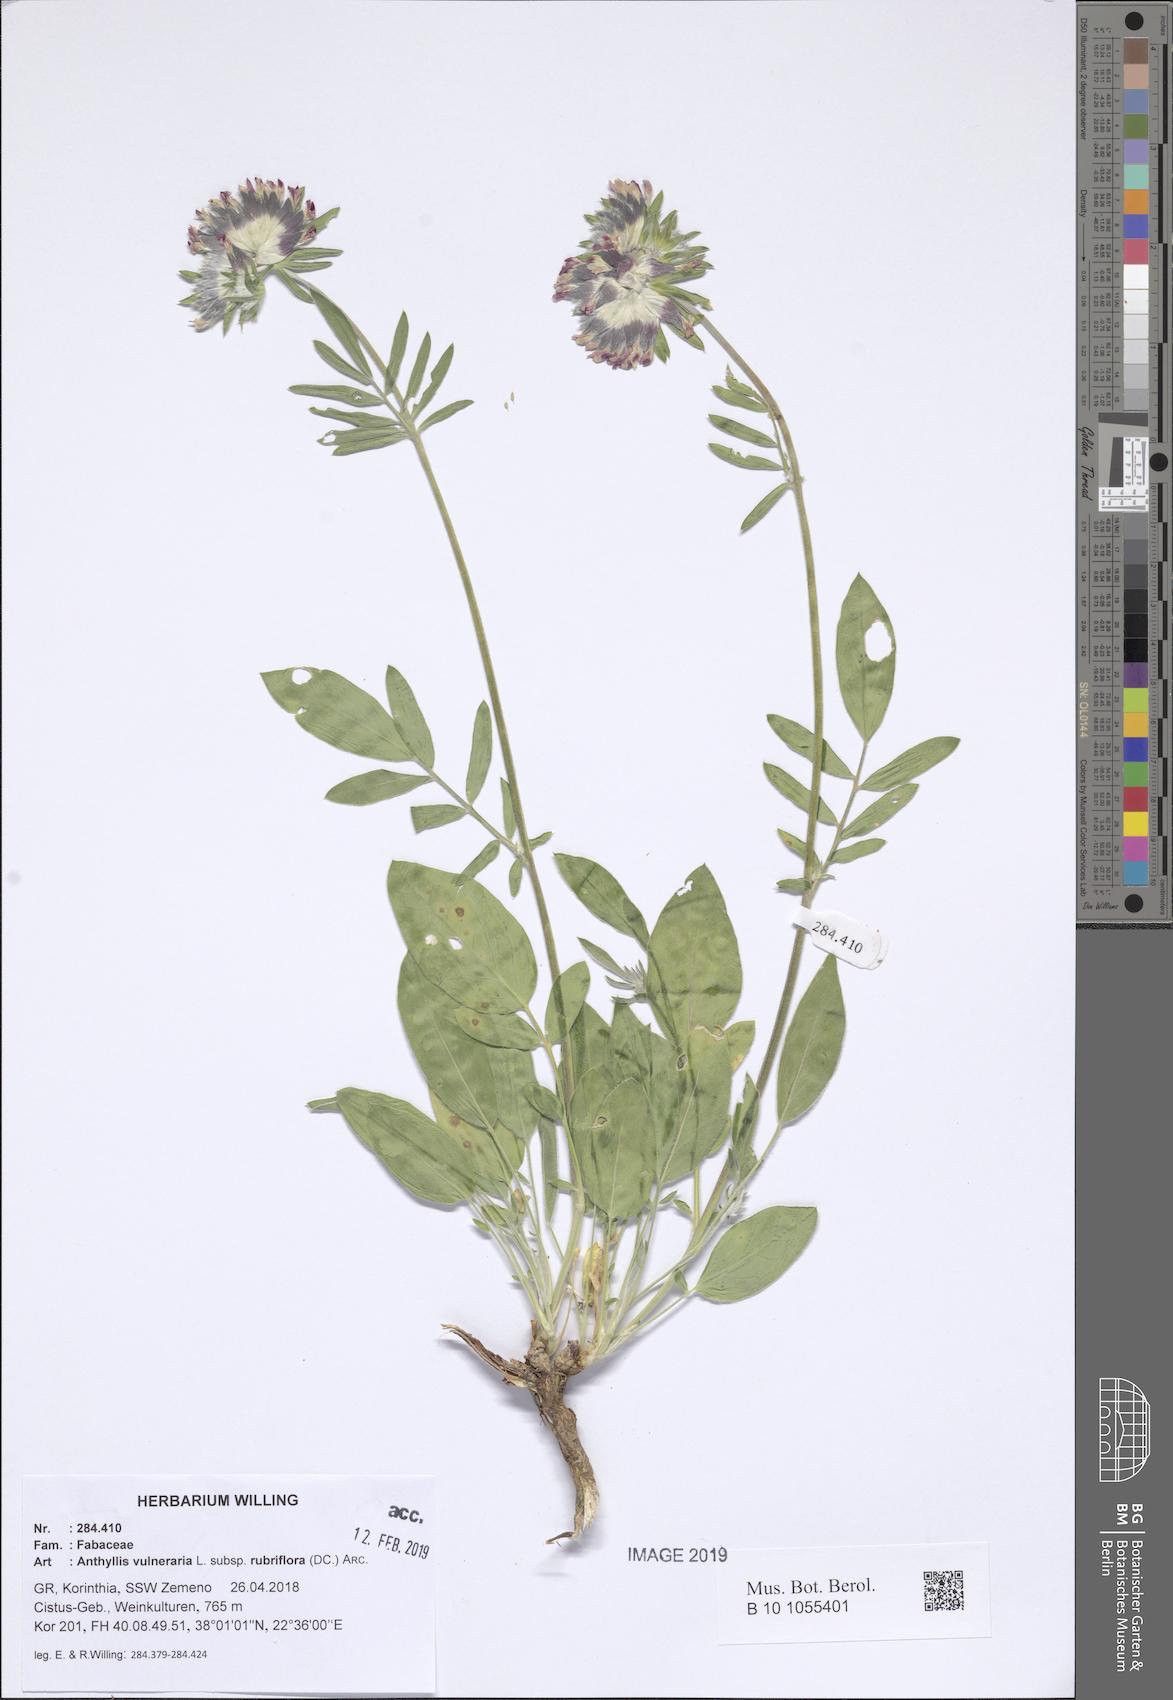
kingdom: Plantae
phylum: Tracheophyta
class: Magnoliopsida
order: Fabales
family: Fabaceae
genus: Anthyllis
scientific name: Anthyllis vulneraria
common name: Kidney vetch
